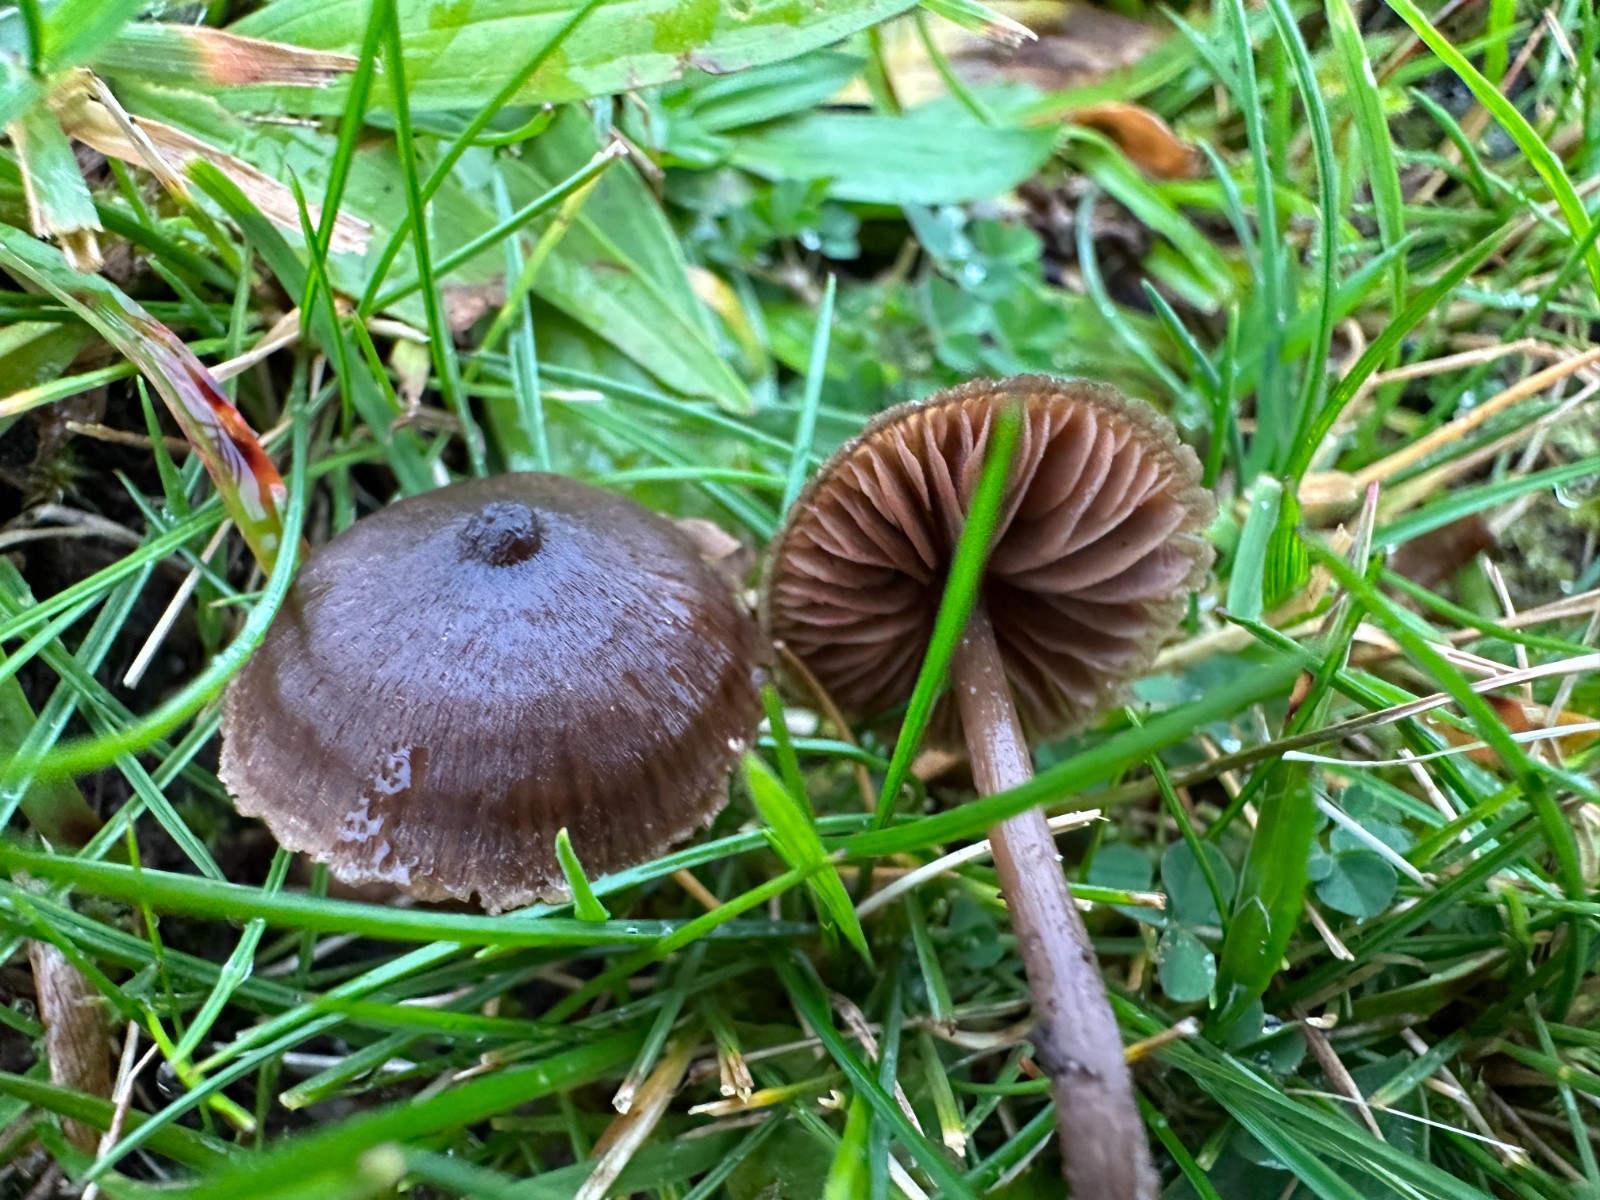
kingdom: Fungi
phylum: Basidiomycota
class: Agaricomycetes
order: Agaricales
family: Entolomataceae
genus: Entoloma
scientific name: Entoloma clandestinum
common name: tykbladet rødblad
